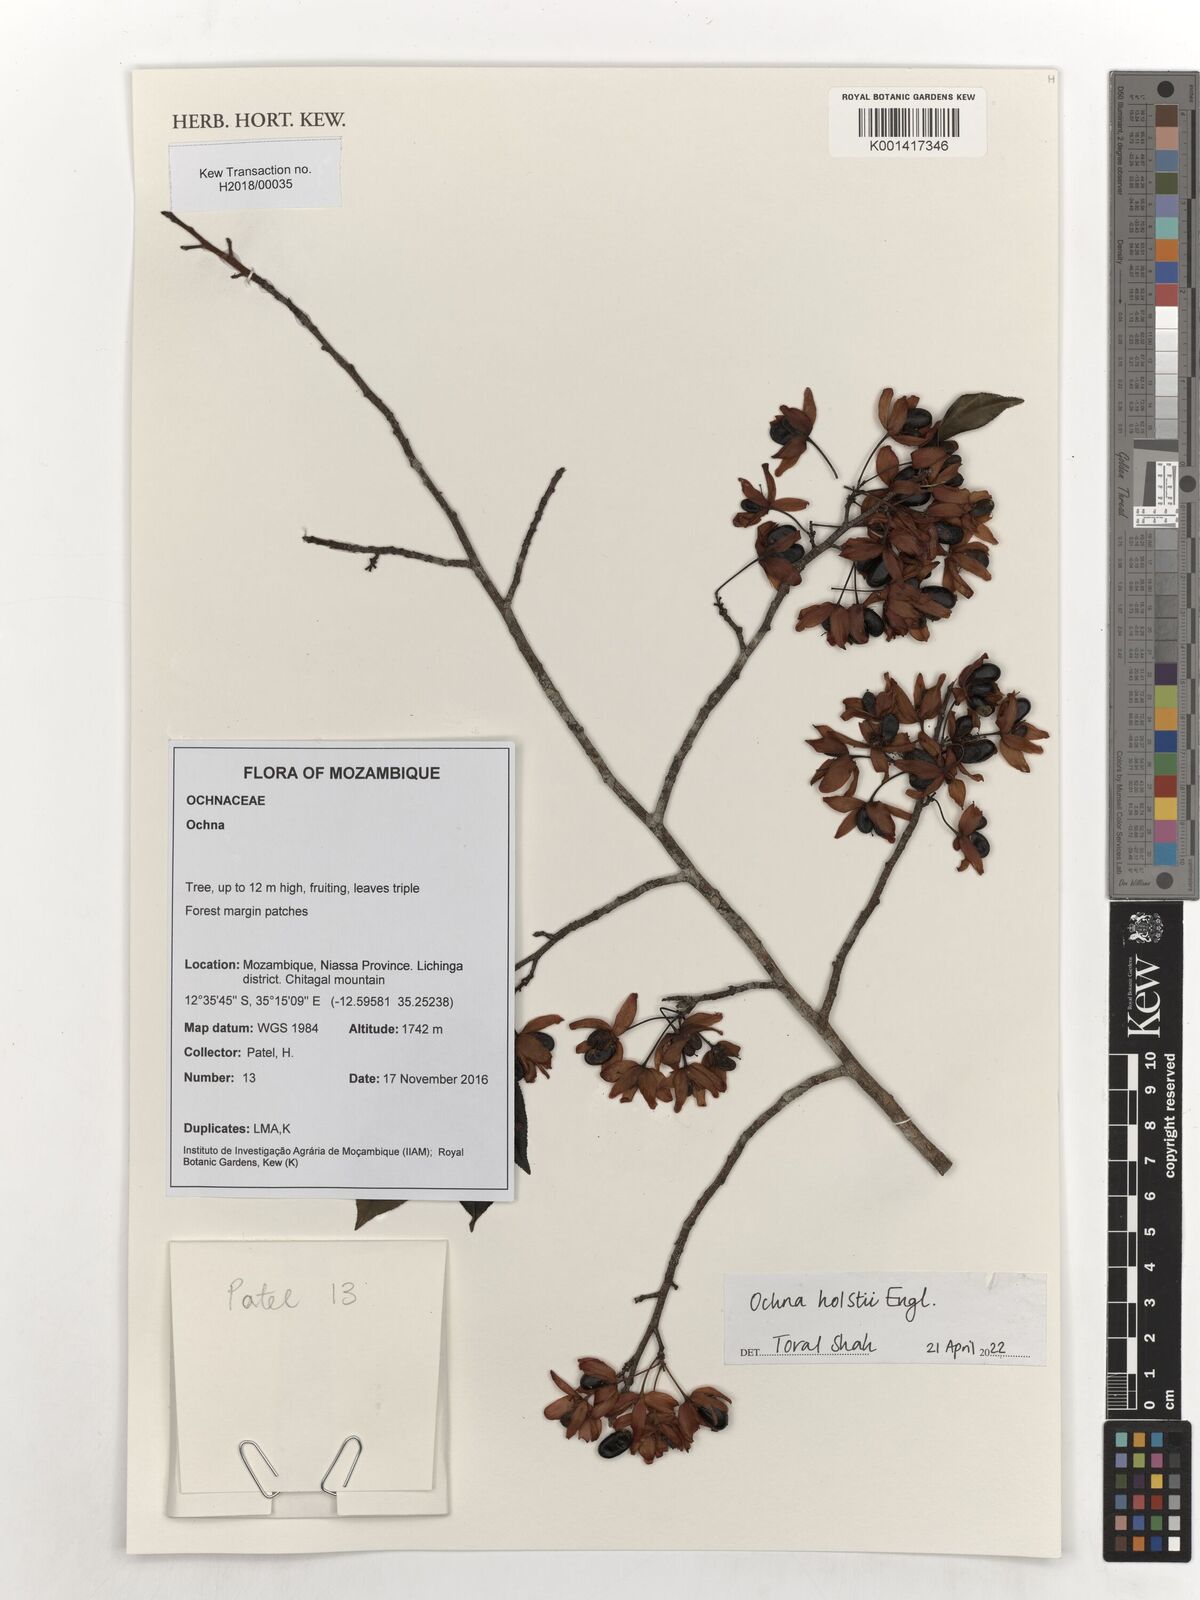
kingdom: Plantae
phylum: Tracheophyta
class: Magnoliopsida
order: Malpighiales
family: Ochnaceae
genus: Ochna
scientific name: Ochna holstii
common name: Red ironwood
